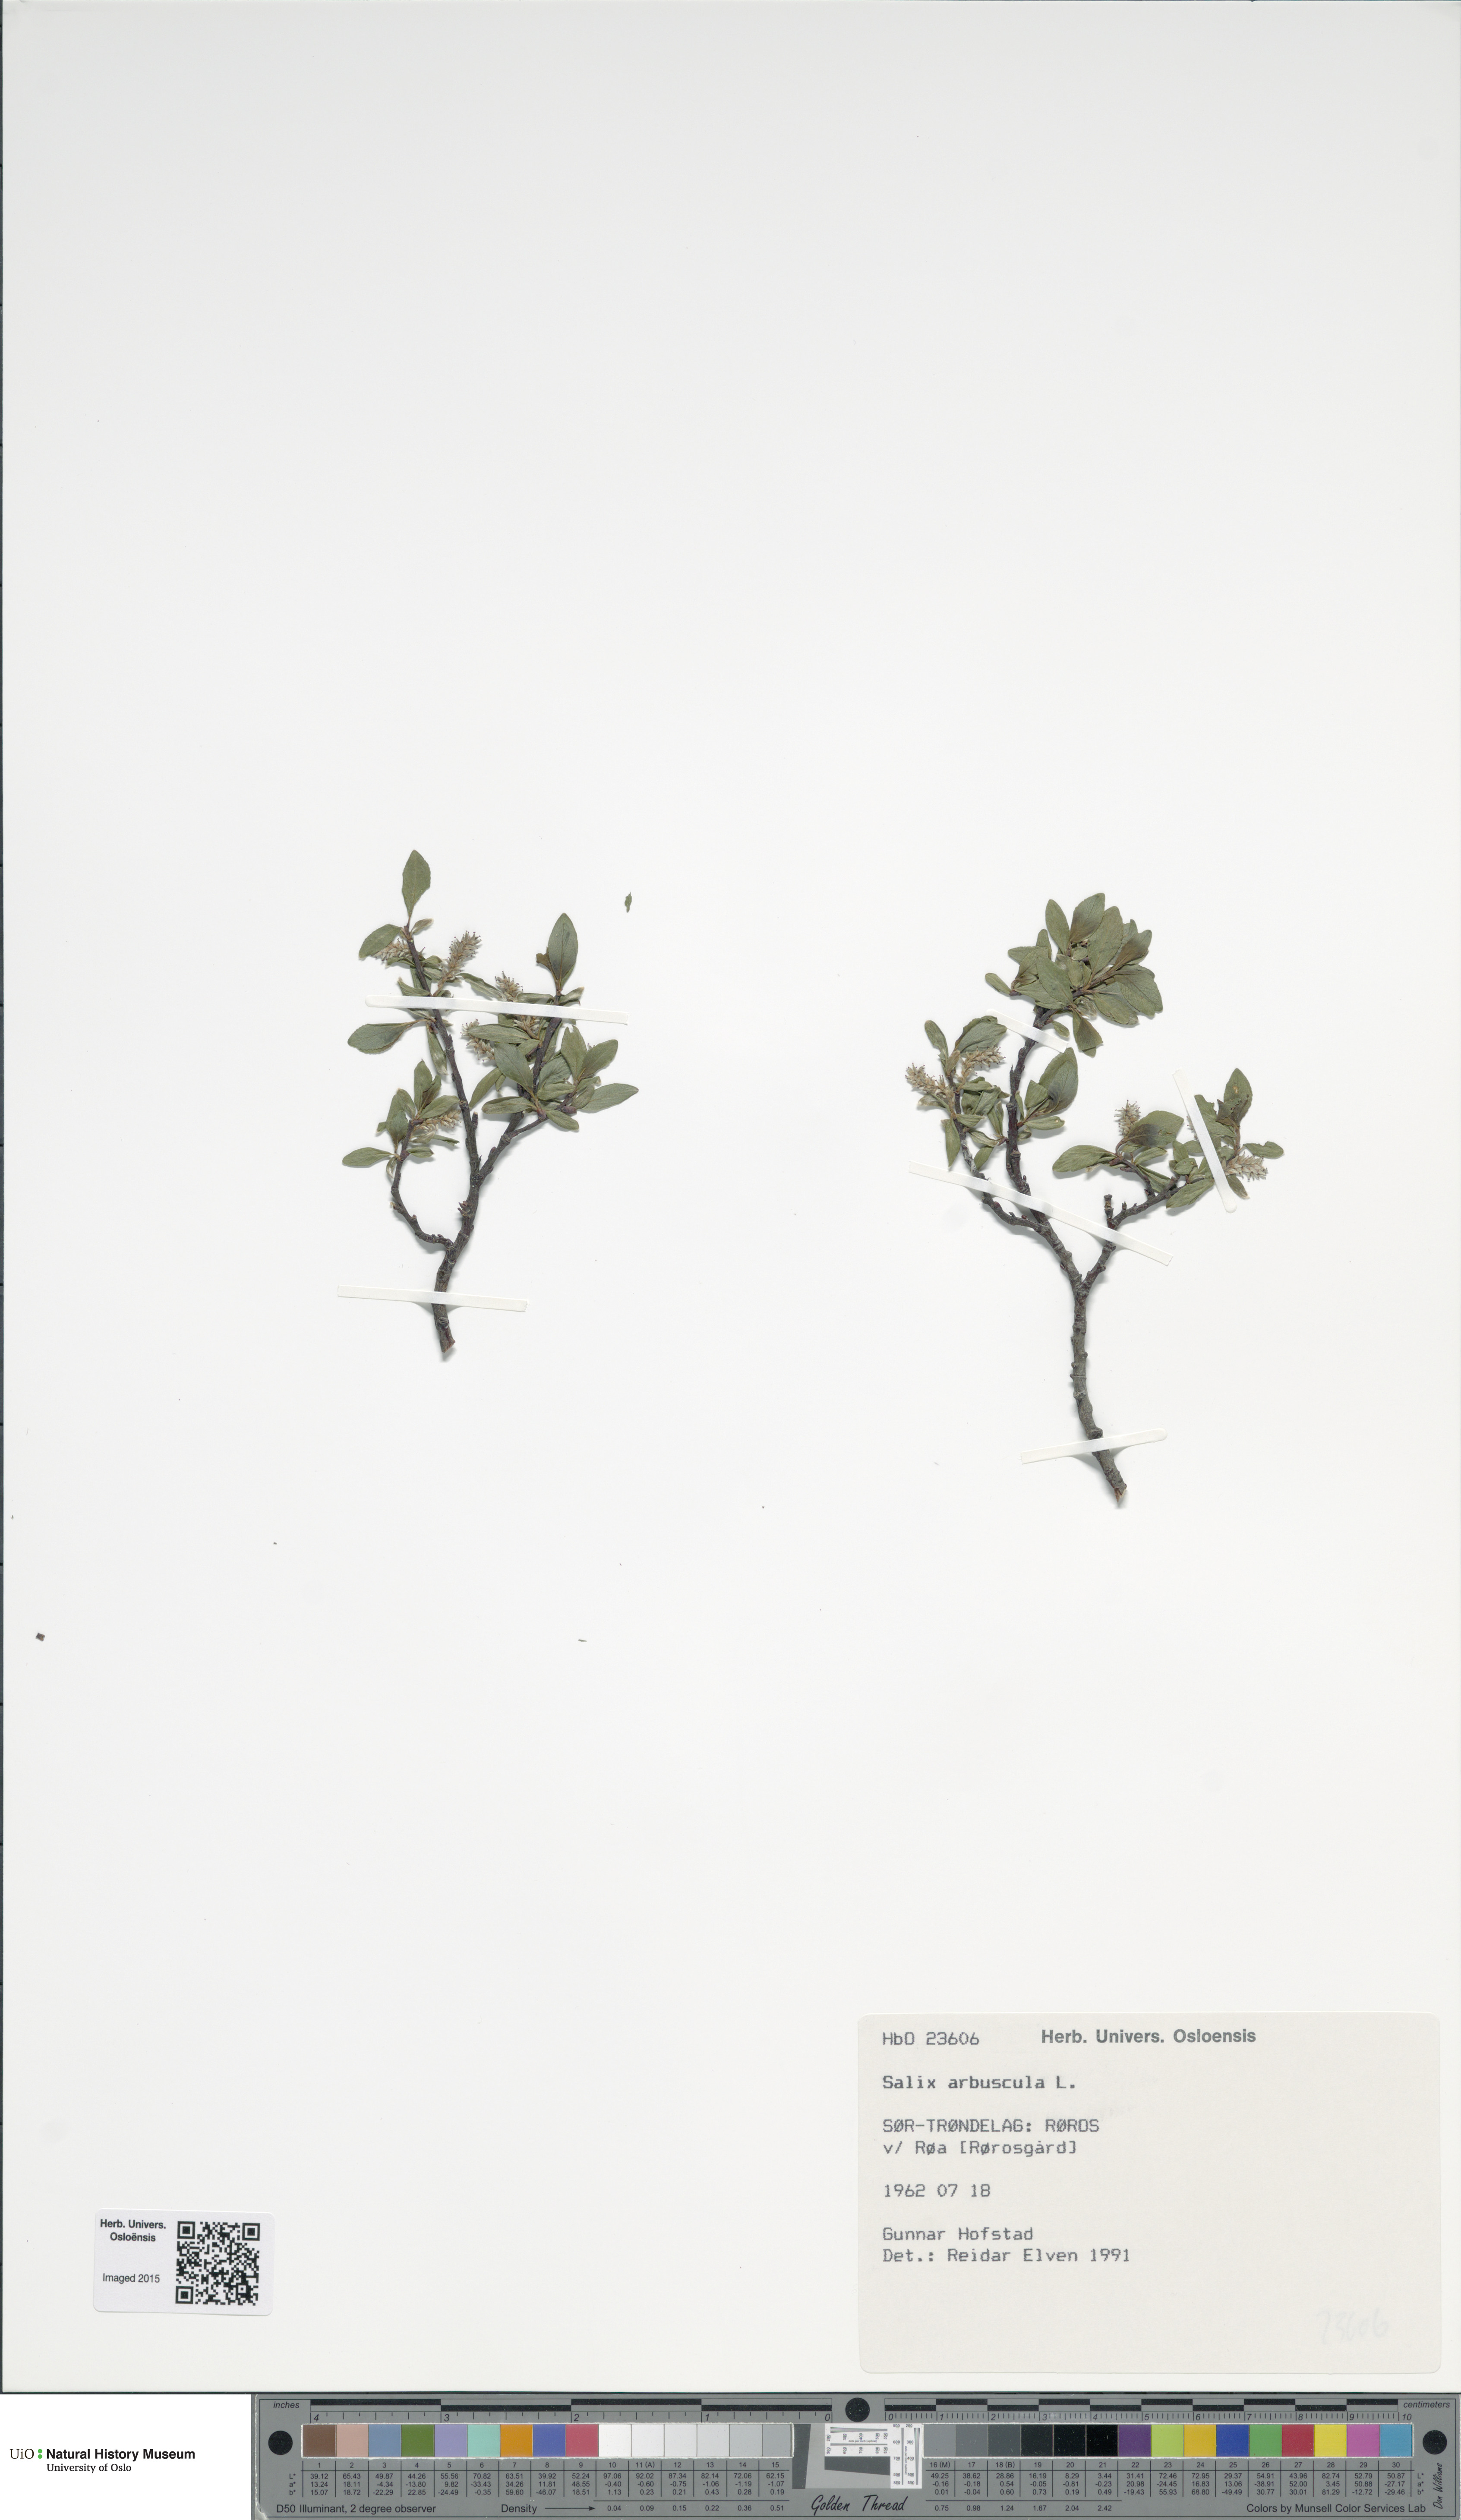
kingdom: Plantae
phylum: Tracheophyta
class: Magnoliopsida
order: Malpighiales
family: Salicaceae
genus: Salix
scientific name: Salix arbuscula
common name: Mountain willow
